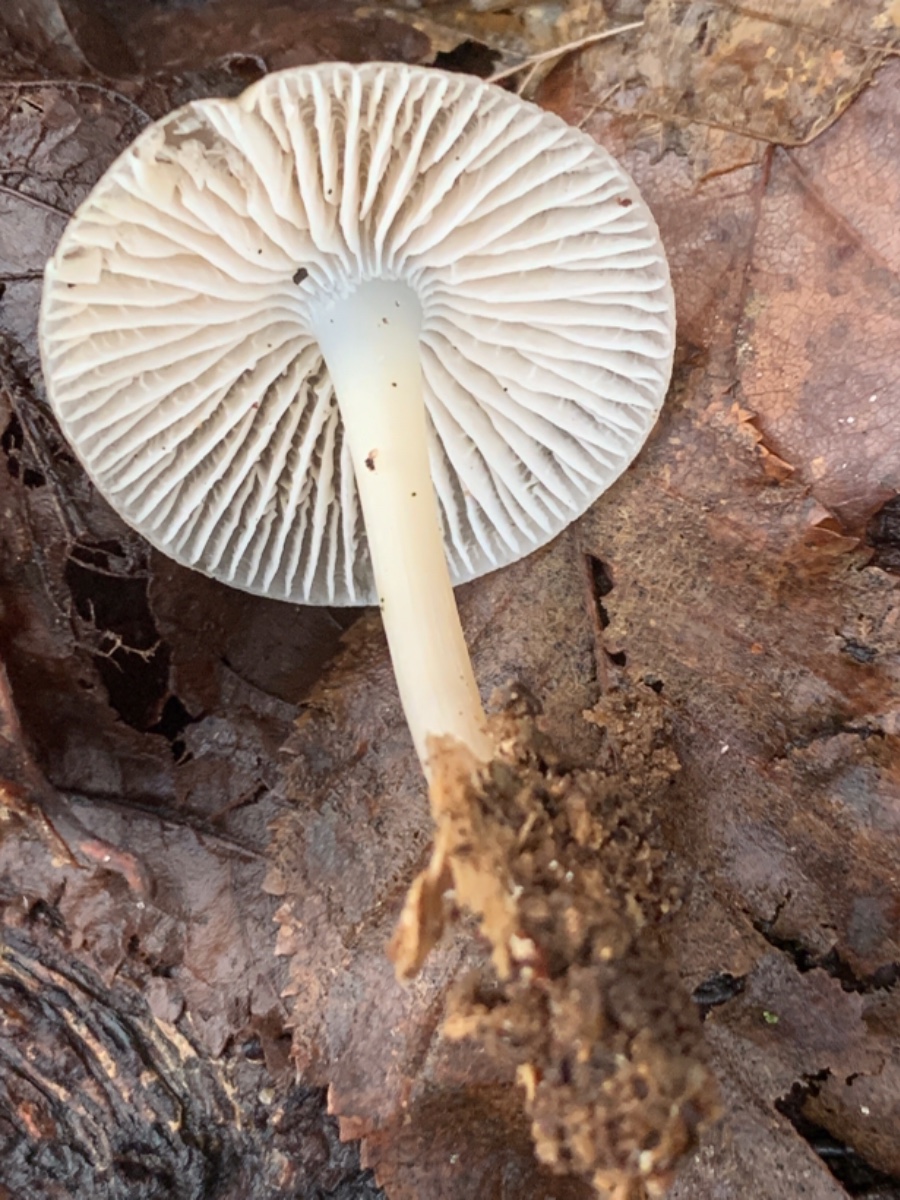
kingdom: Fungi
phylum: Basidiomycota
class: Agaricomycetes
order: Agaricales
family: Mycenaceae
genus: Mycena
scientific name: Mycena galericulata
